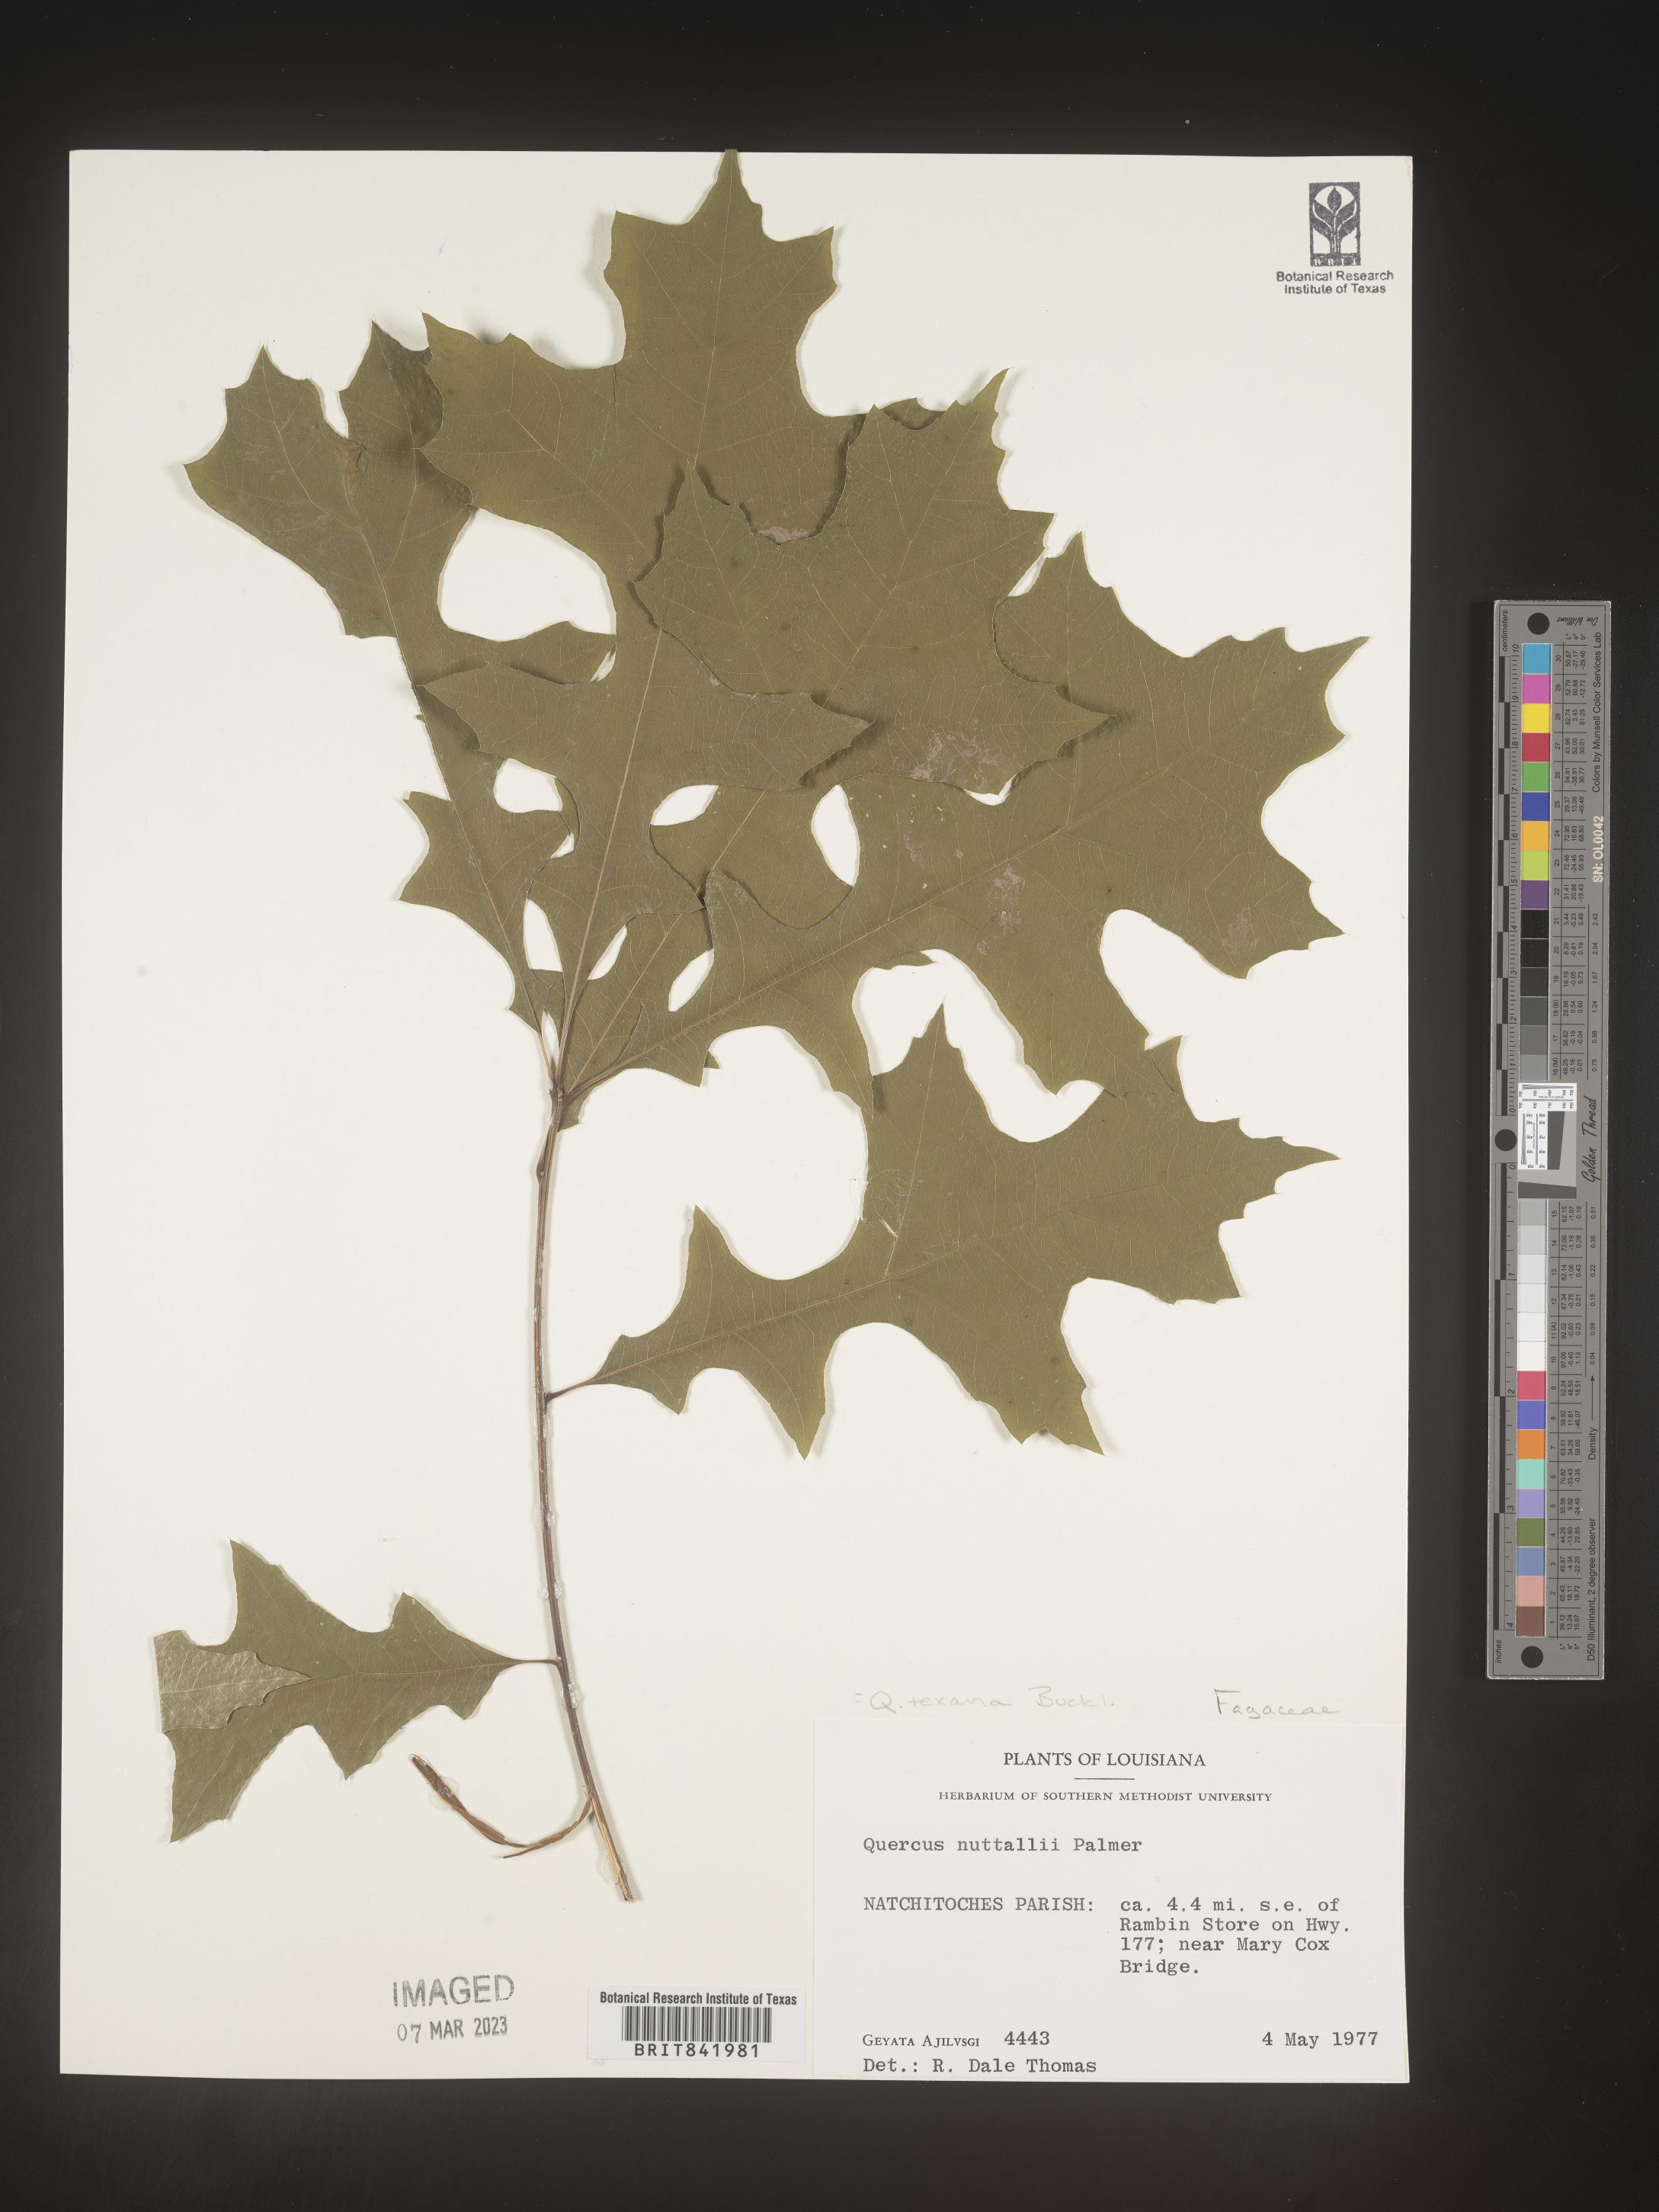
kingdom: Plantae
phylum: Tracheophyta
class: Magnoliopsida
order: Fagales
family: Fagaceae
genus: Quercus
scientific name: Quercus texana
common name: Nuttall oak
